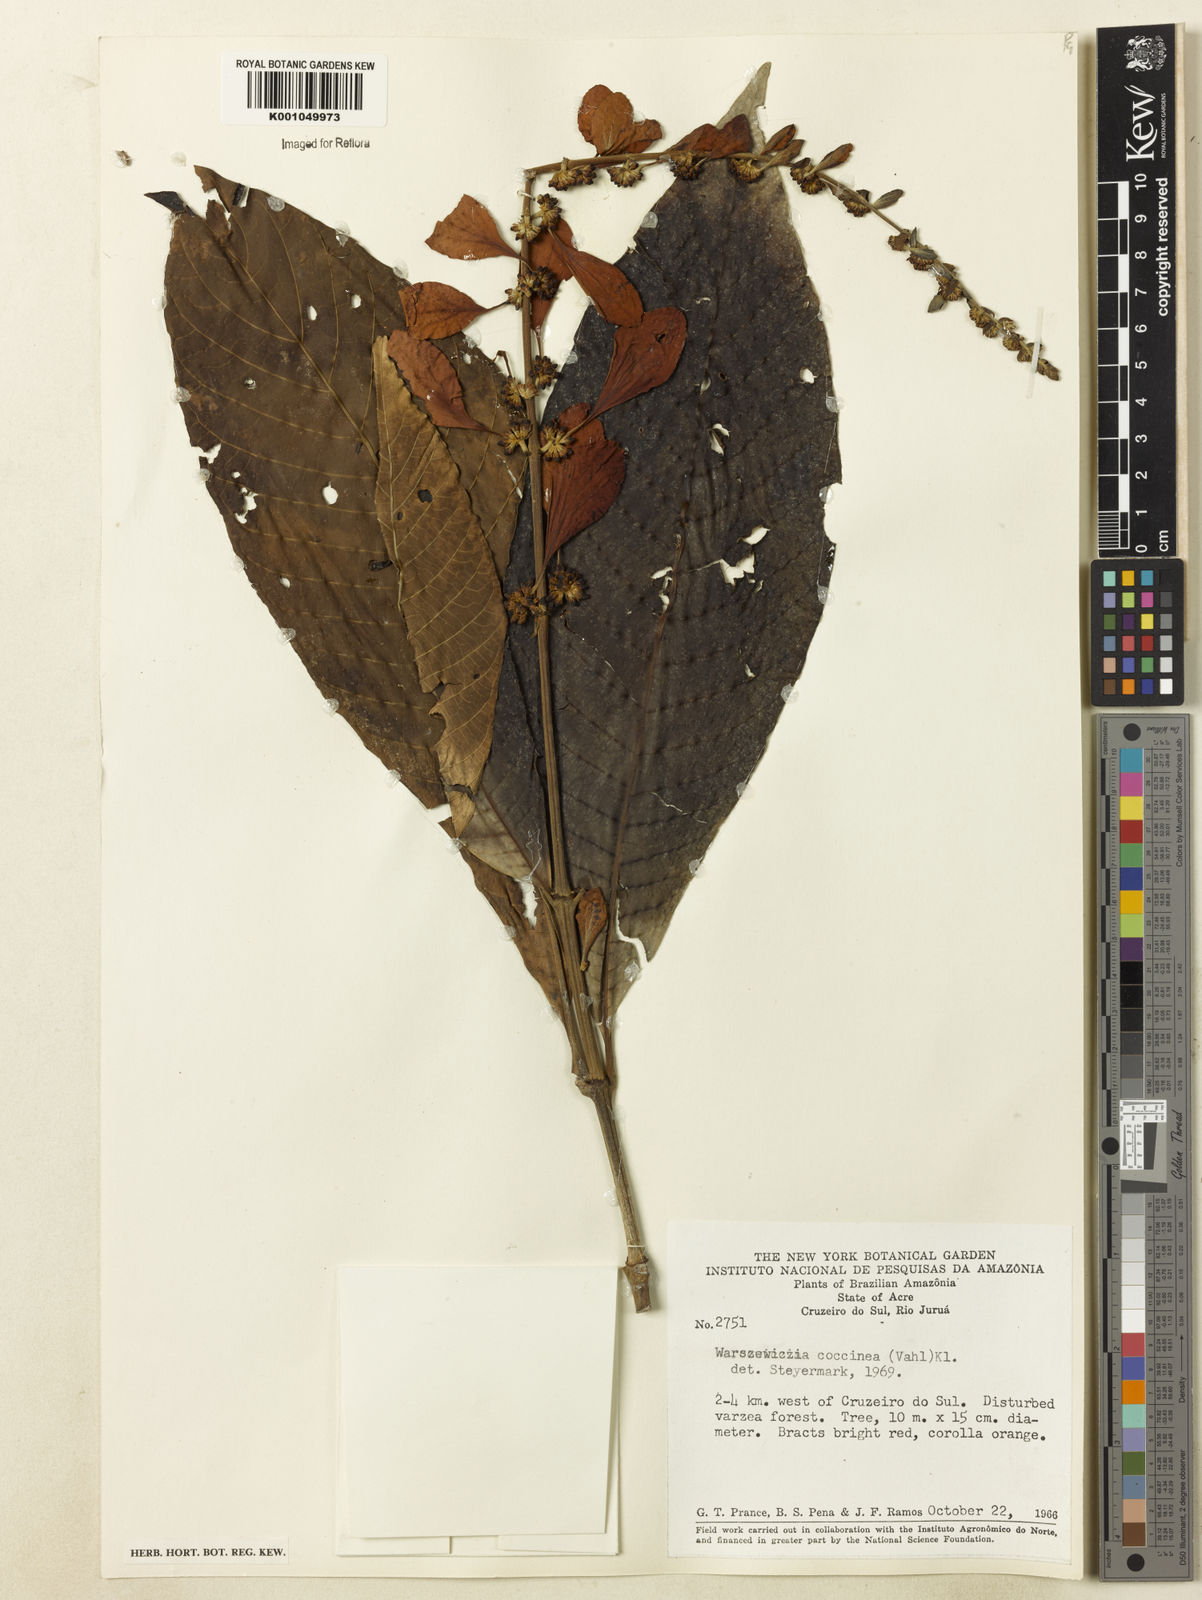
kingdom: Plantae
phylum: Tracheophyta
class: Magnoliopsida
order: Gentianales
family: Rubiaceae
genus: Warszewiczia
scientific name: Warszewiczia coccinea
